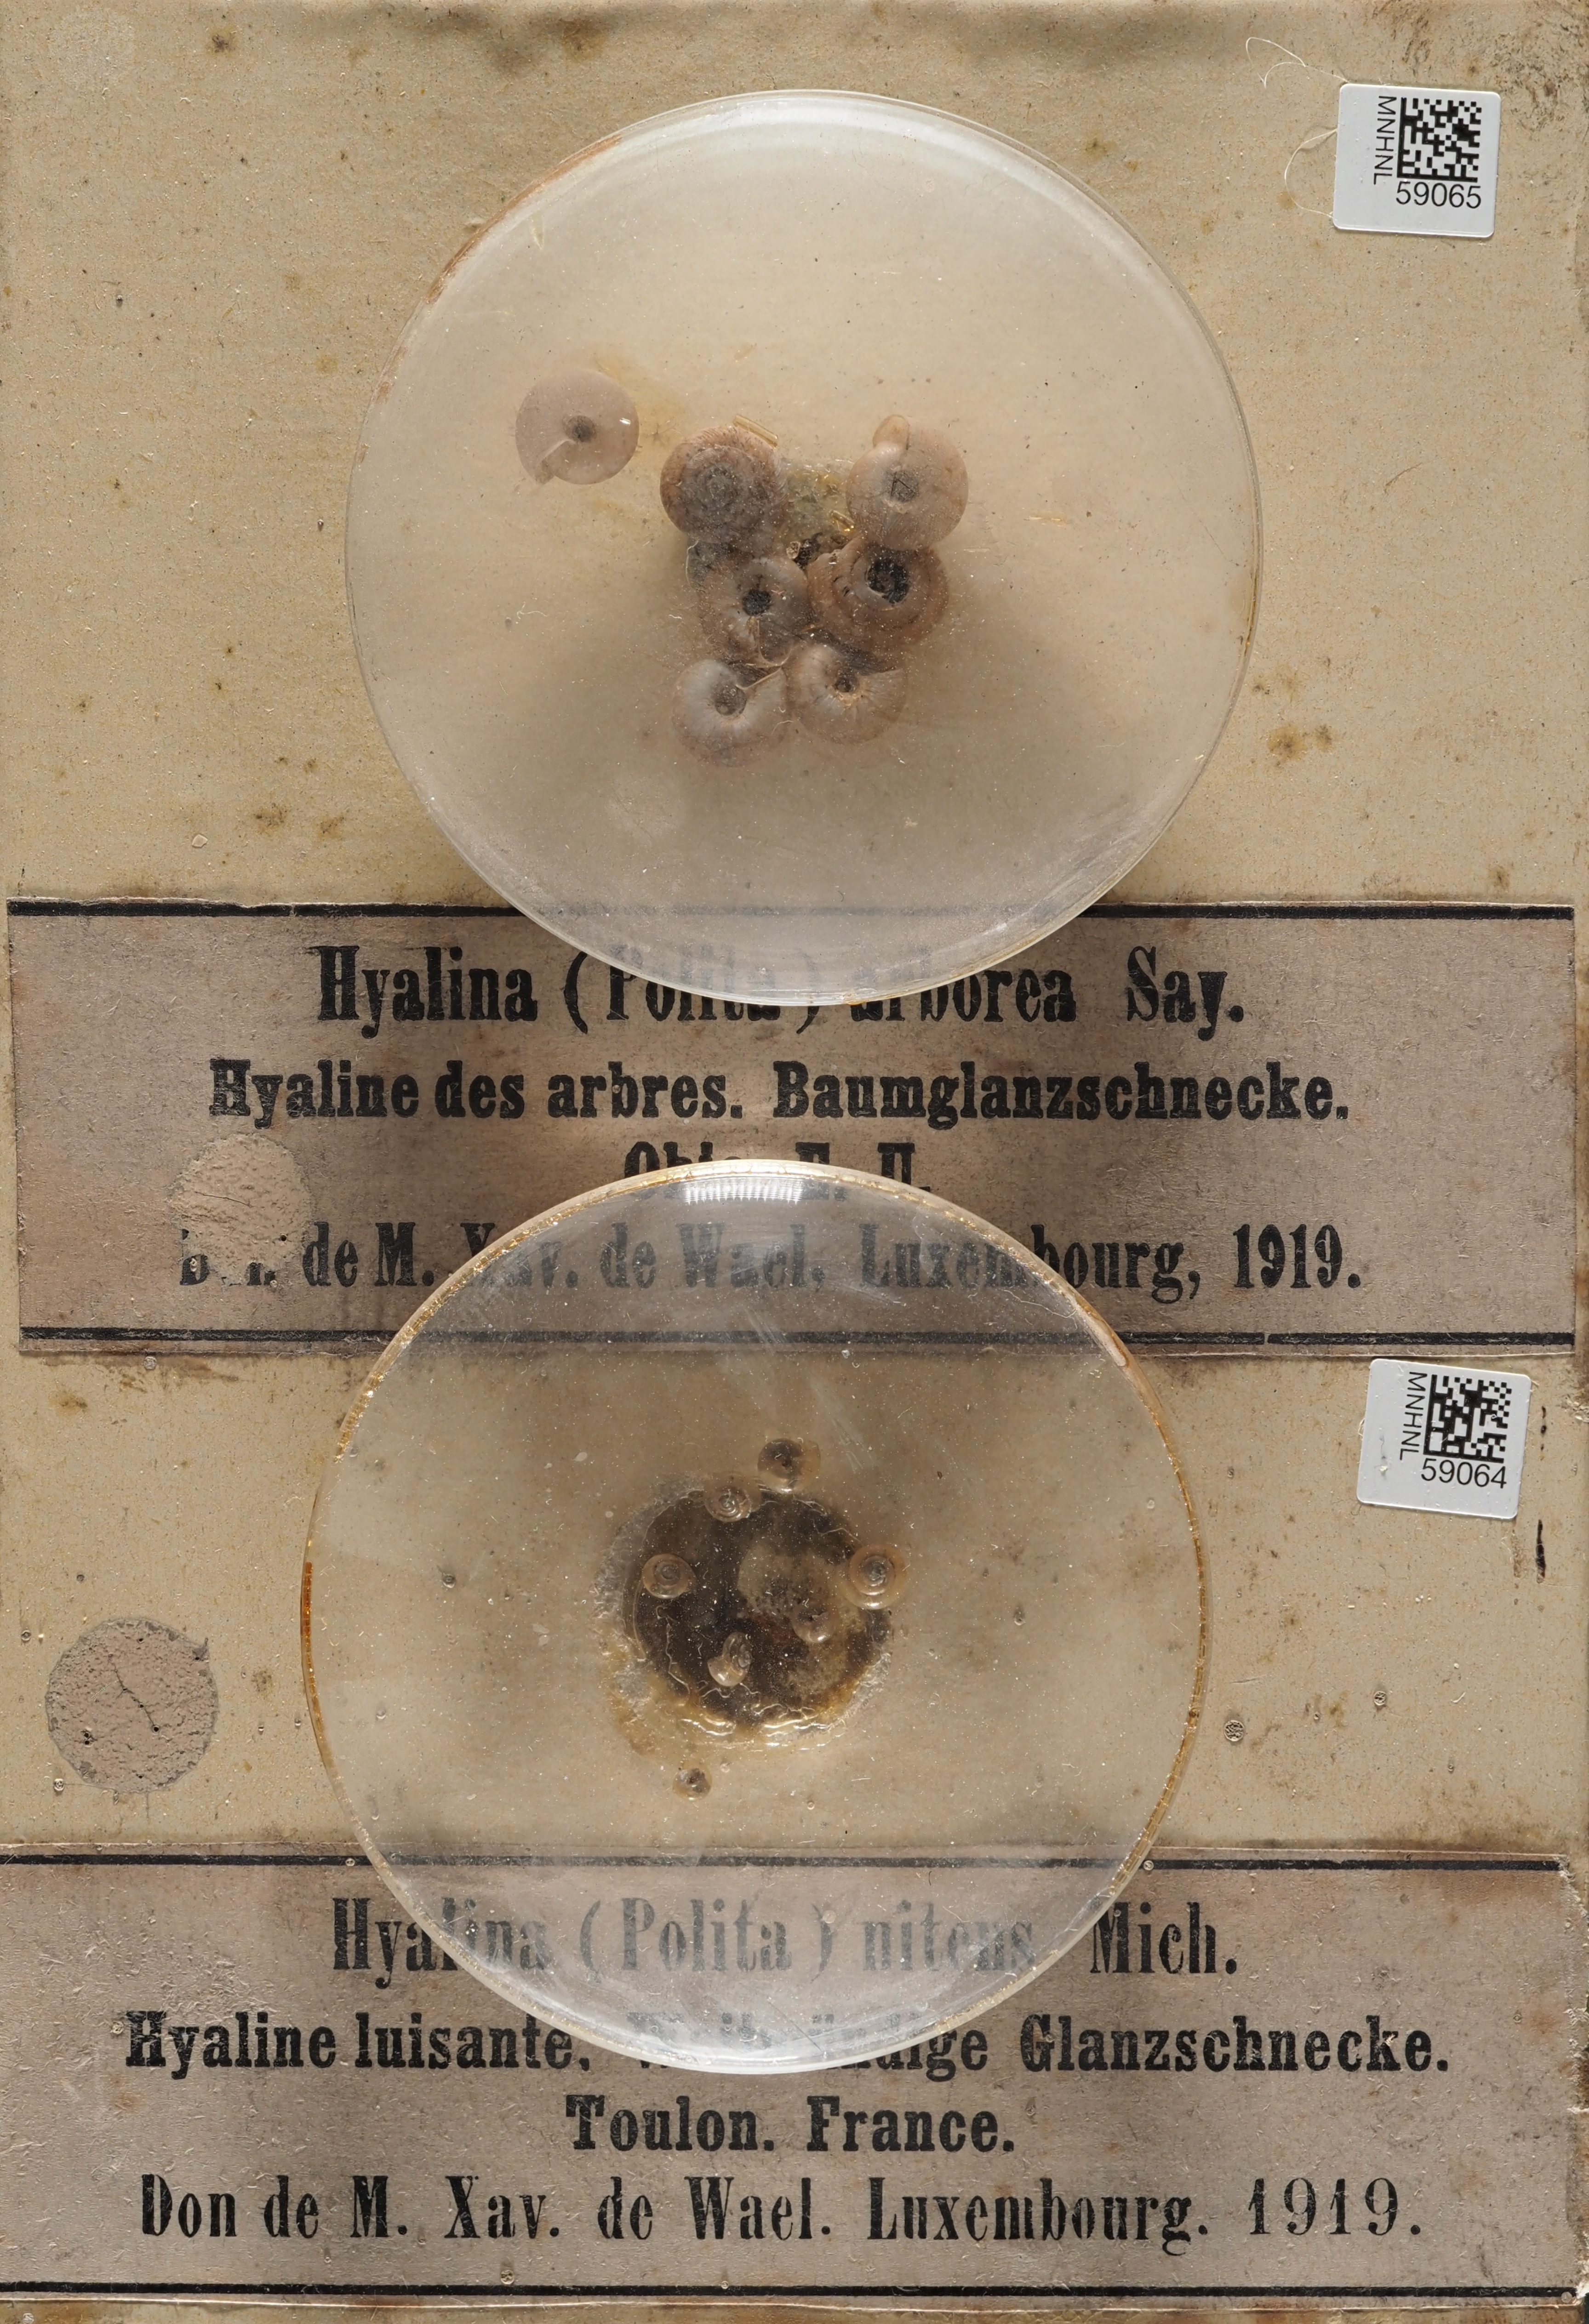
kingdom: Animalia
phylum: Mollusca
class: Gastropoda
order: Stylommatophora
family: Gastrodontidae
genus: Zonitoides
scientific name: Zonitoides arboreus
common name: Quick gloss
